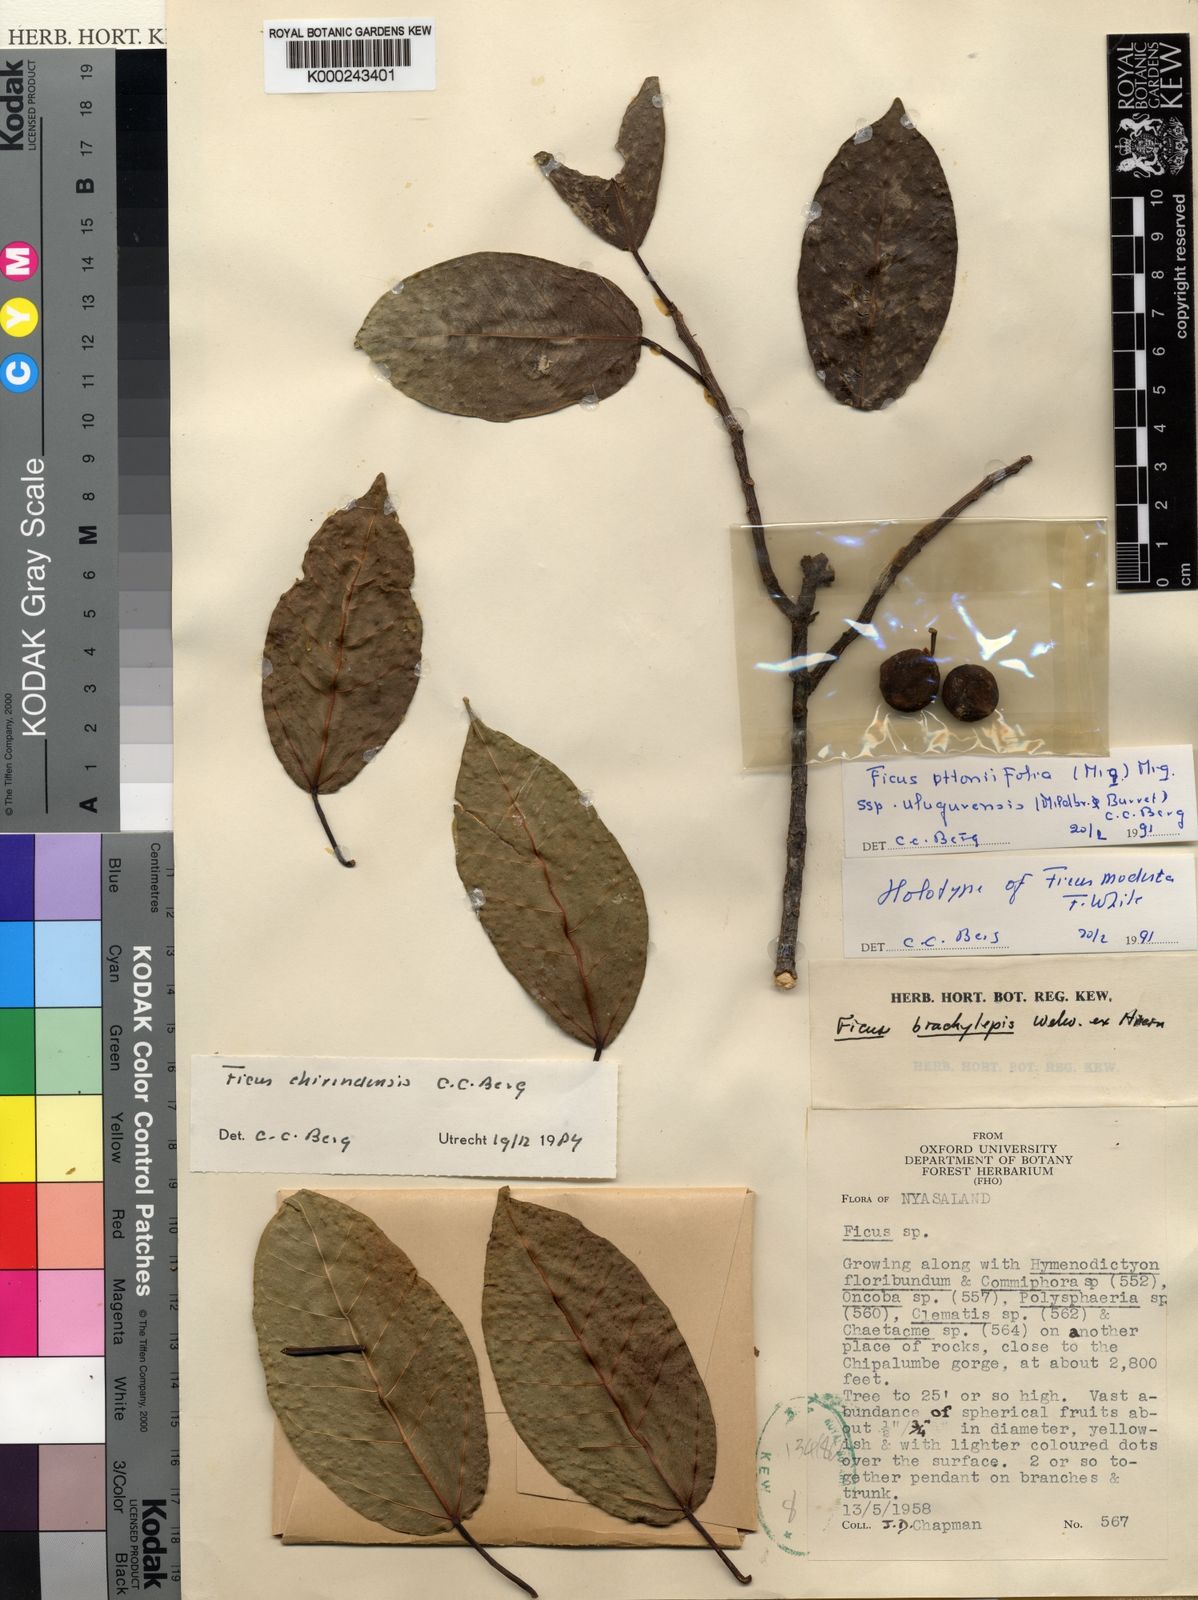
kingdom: Plantae
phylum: Tracheophyta
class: Magnoliopsida
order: Rosales
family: Moraceae
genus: Ficus
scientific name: Ficus ottoniifolia
